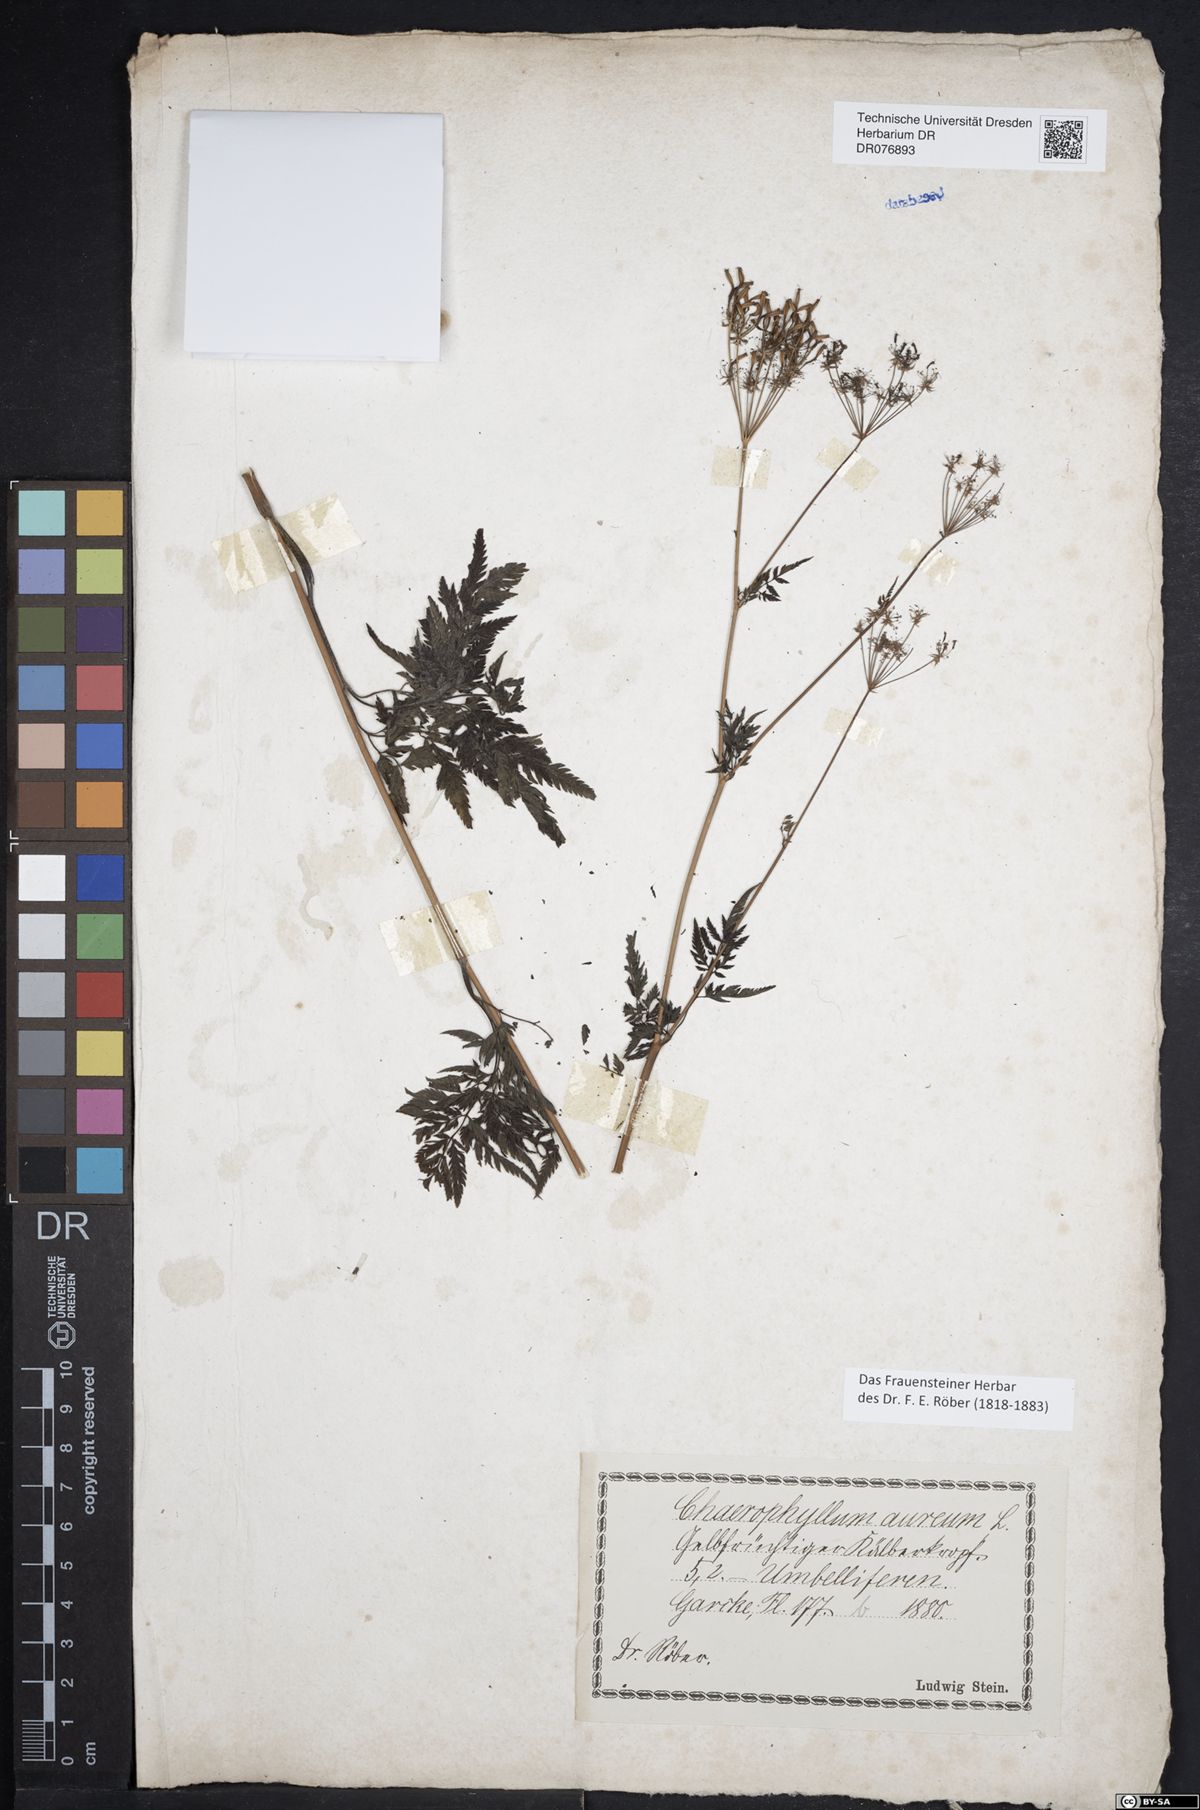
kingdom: Plantae
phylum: Tracheophyta
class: Magnoliopsida
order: Apiales
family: Apiaceae
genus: Chaerophyllum
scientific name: Chaerophyllum aureum
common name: Golden chervil
